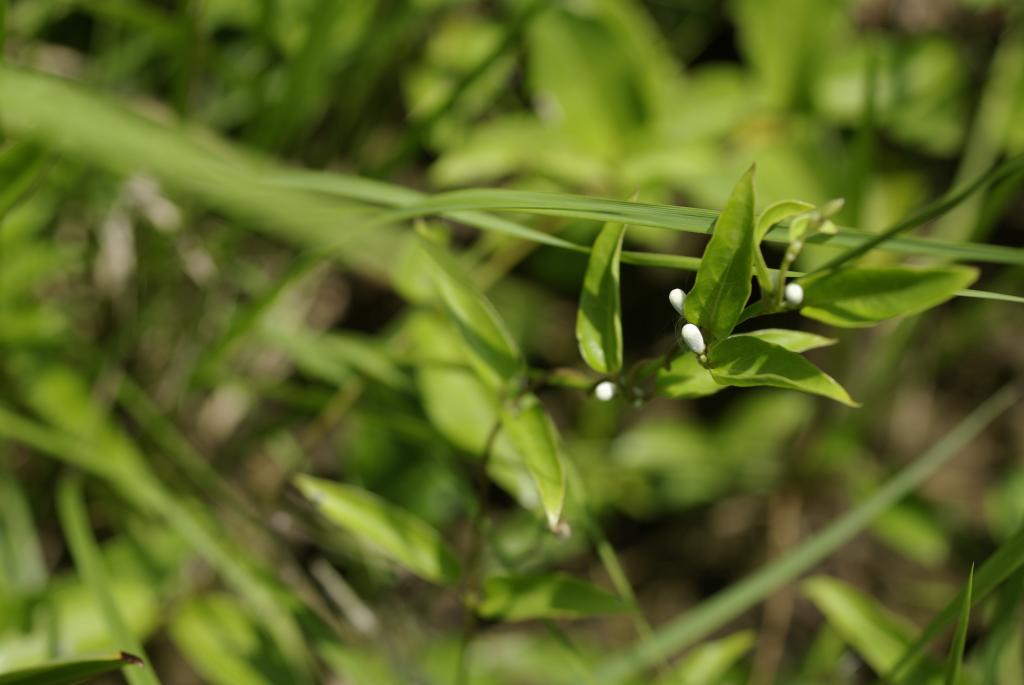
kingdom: Plantae
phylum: Tracheophyta
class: Magnoliopsida
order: Gentianales
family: Rubiaceae
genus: Paederia
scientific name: Paederia foetida
